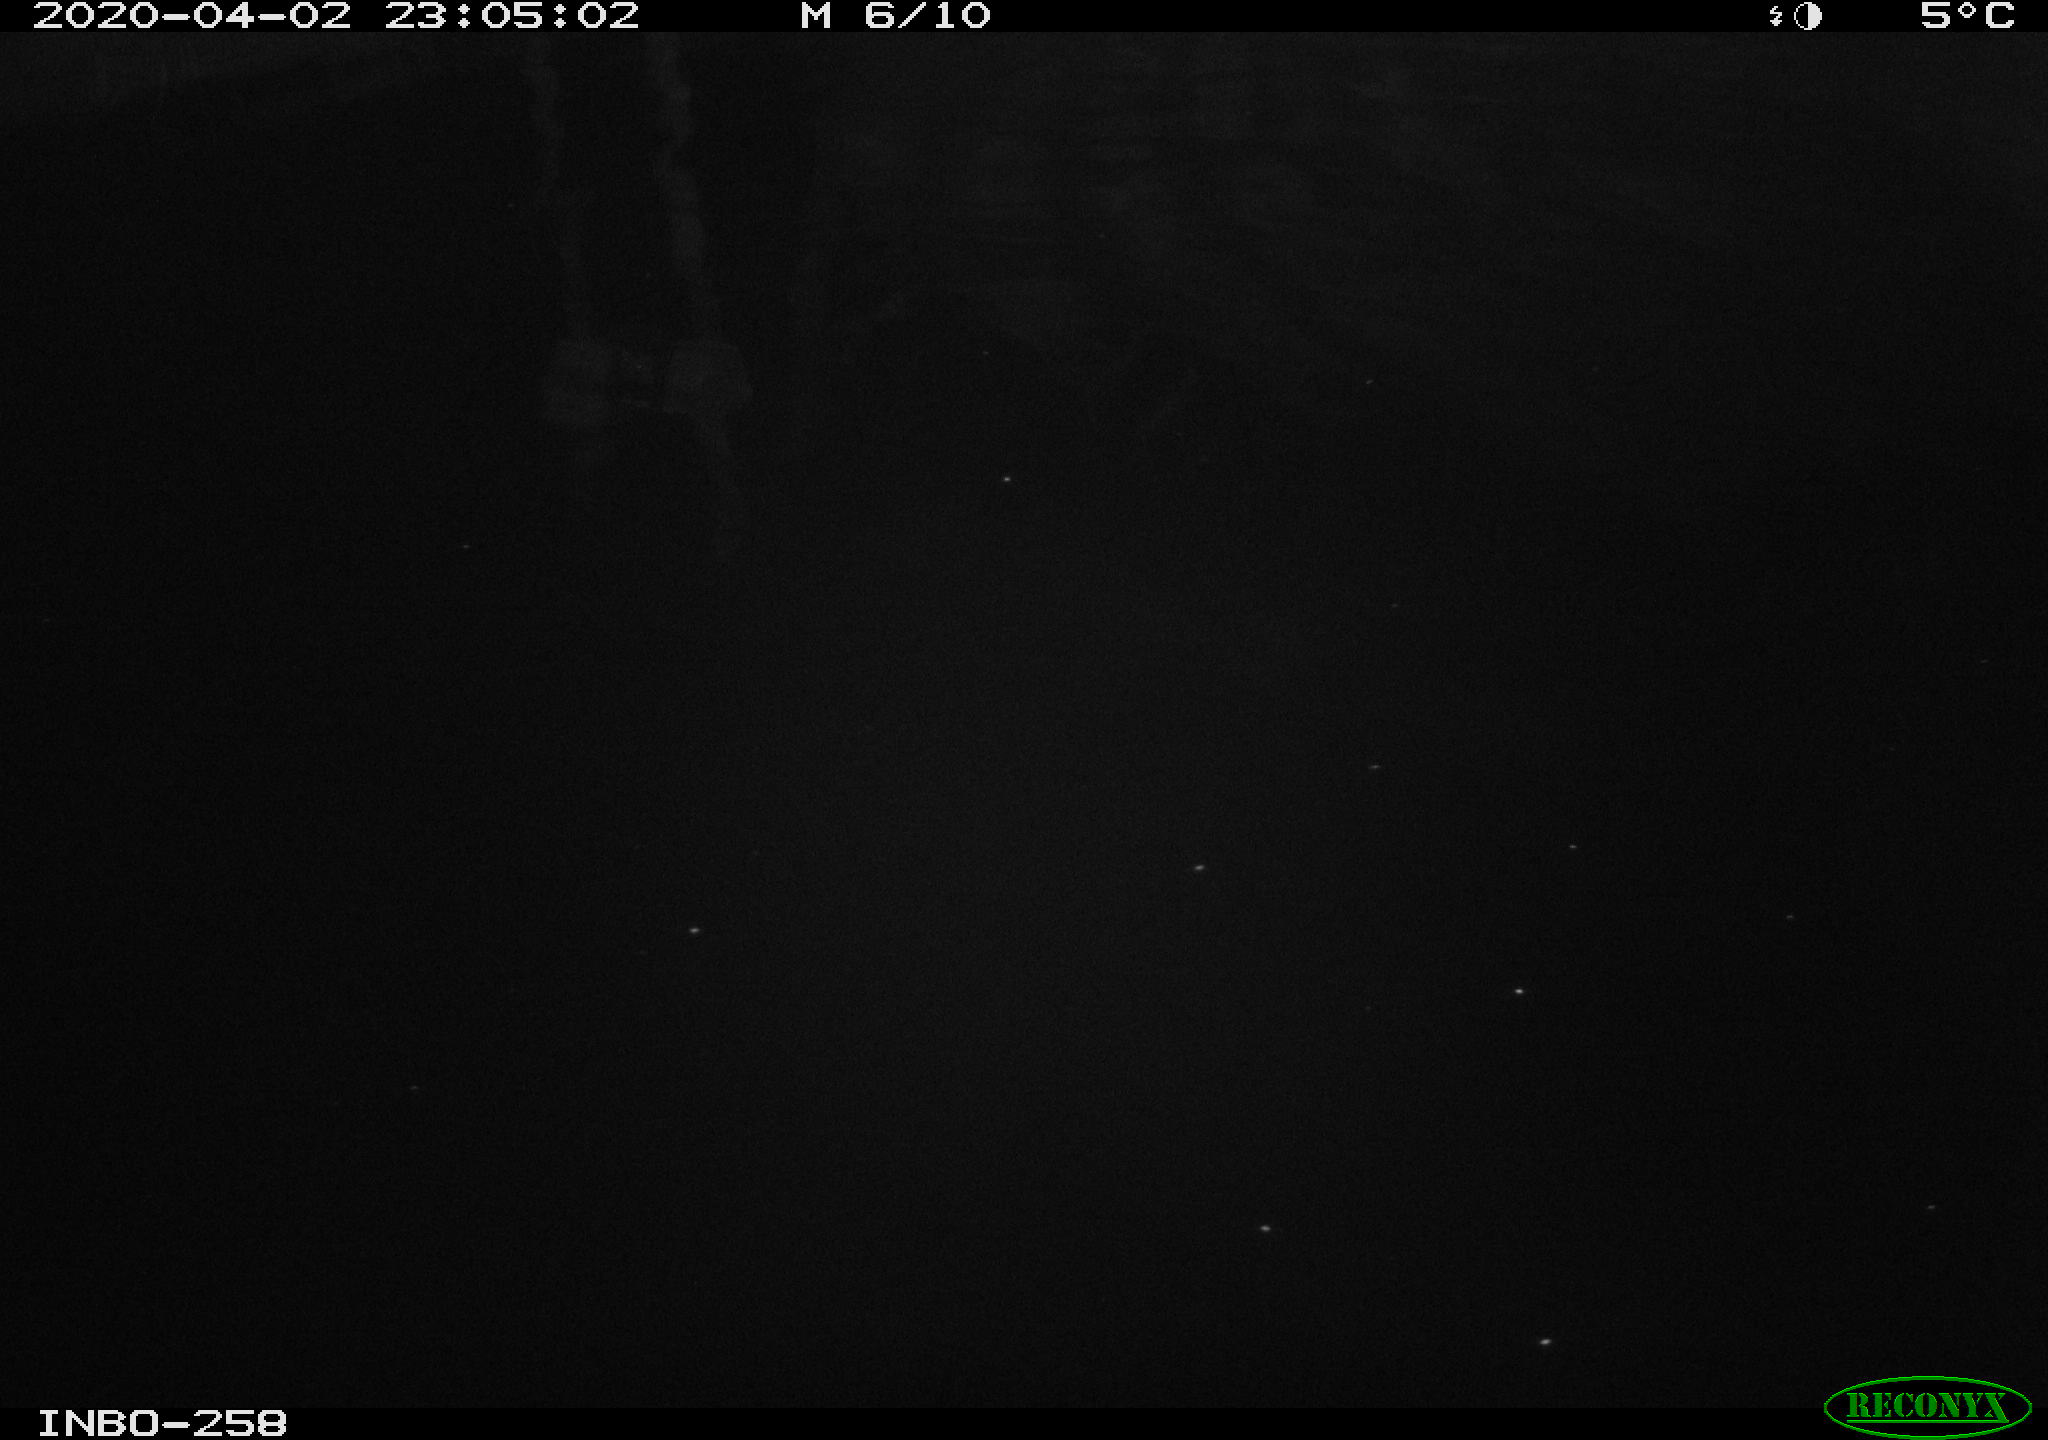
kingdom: Animalia
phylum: Chordata
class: Aves
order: Anseriformes
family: Anatidae
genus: Anas
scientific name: Anas platyrhynchos
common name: Mallard
